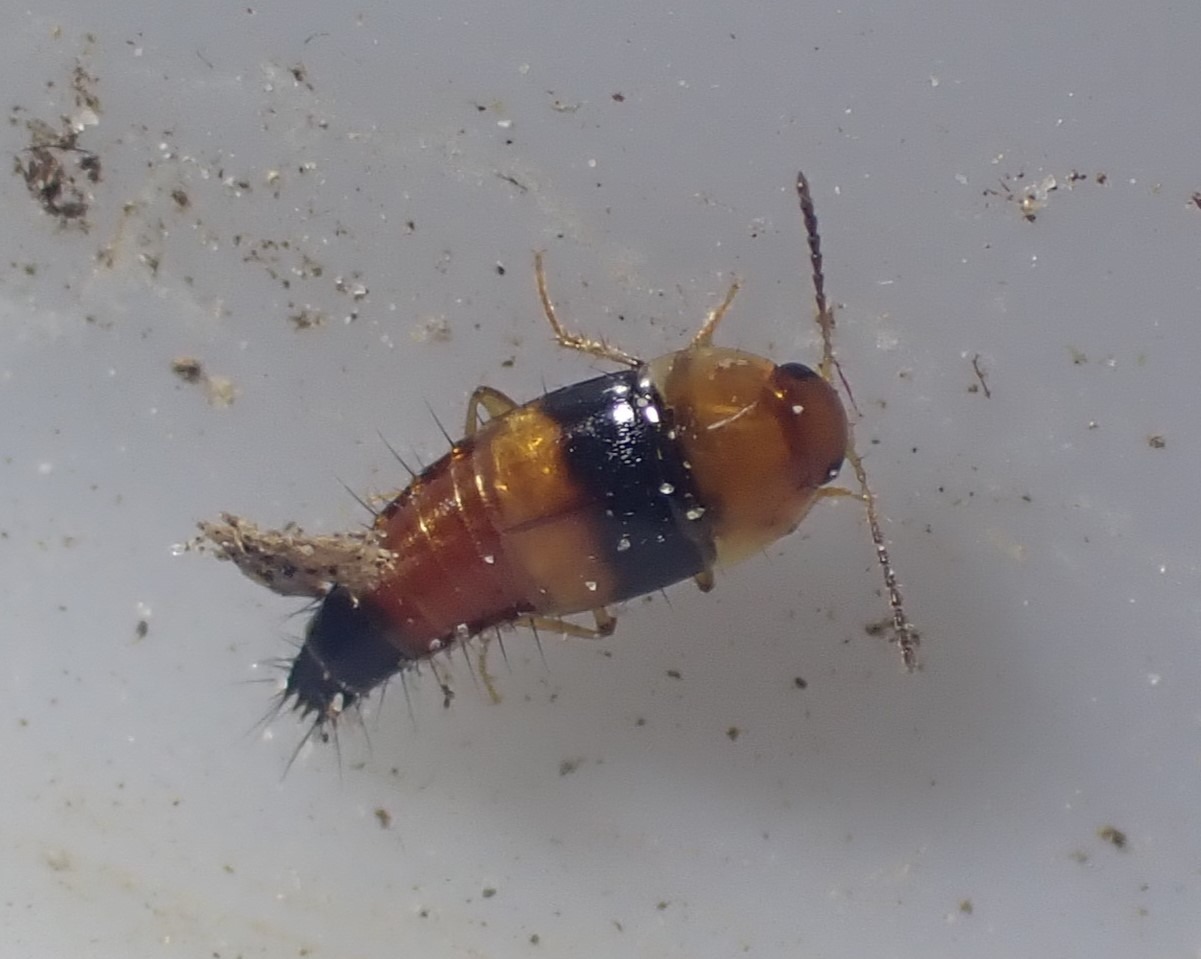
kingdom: Animalia
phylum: Arthropoda
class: Insecta
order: Coleoptera
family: Staphylinidae
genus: Tachyporus
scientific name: Tachyporus obtusus
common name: Gulhovedet agerrovbille
